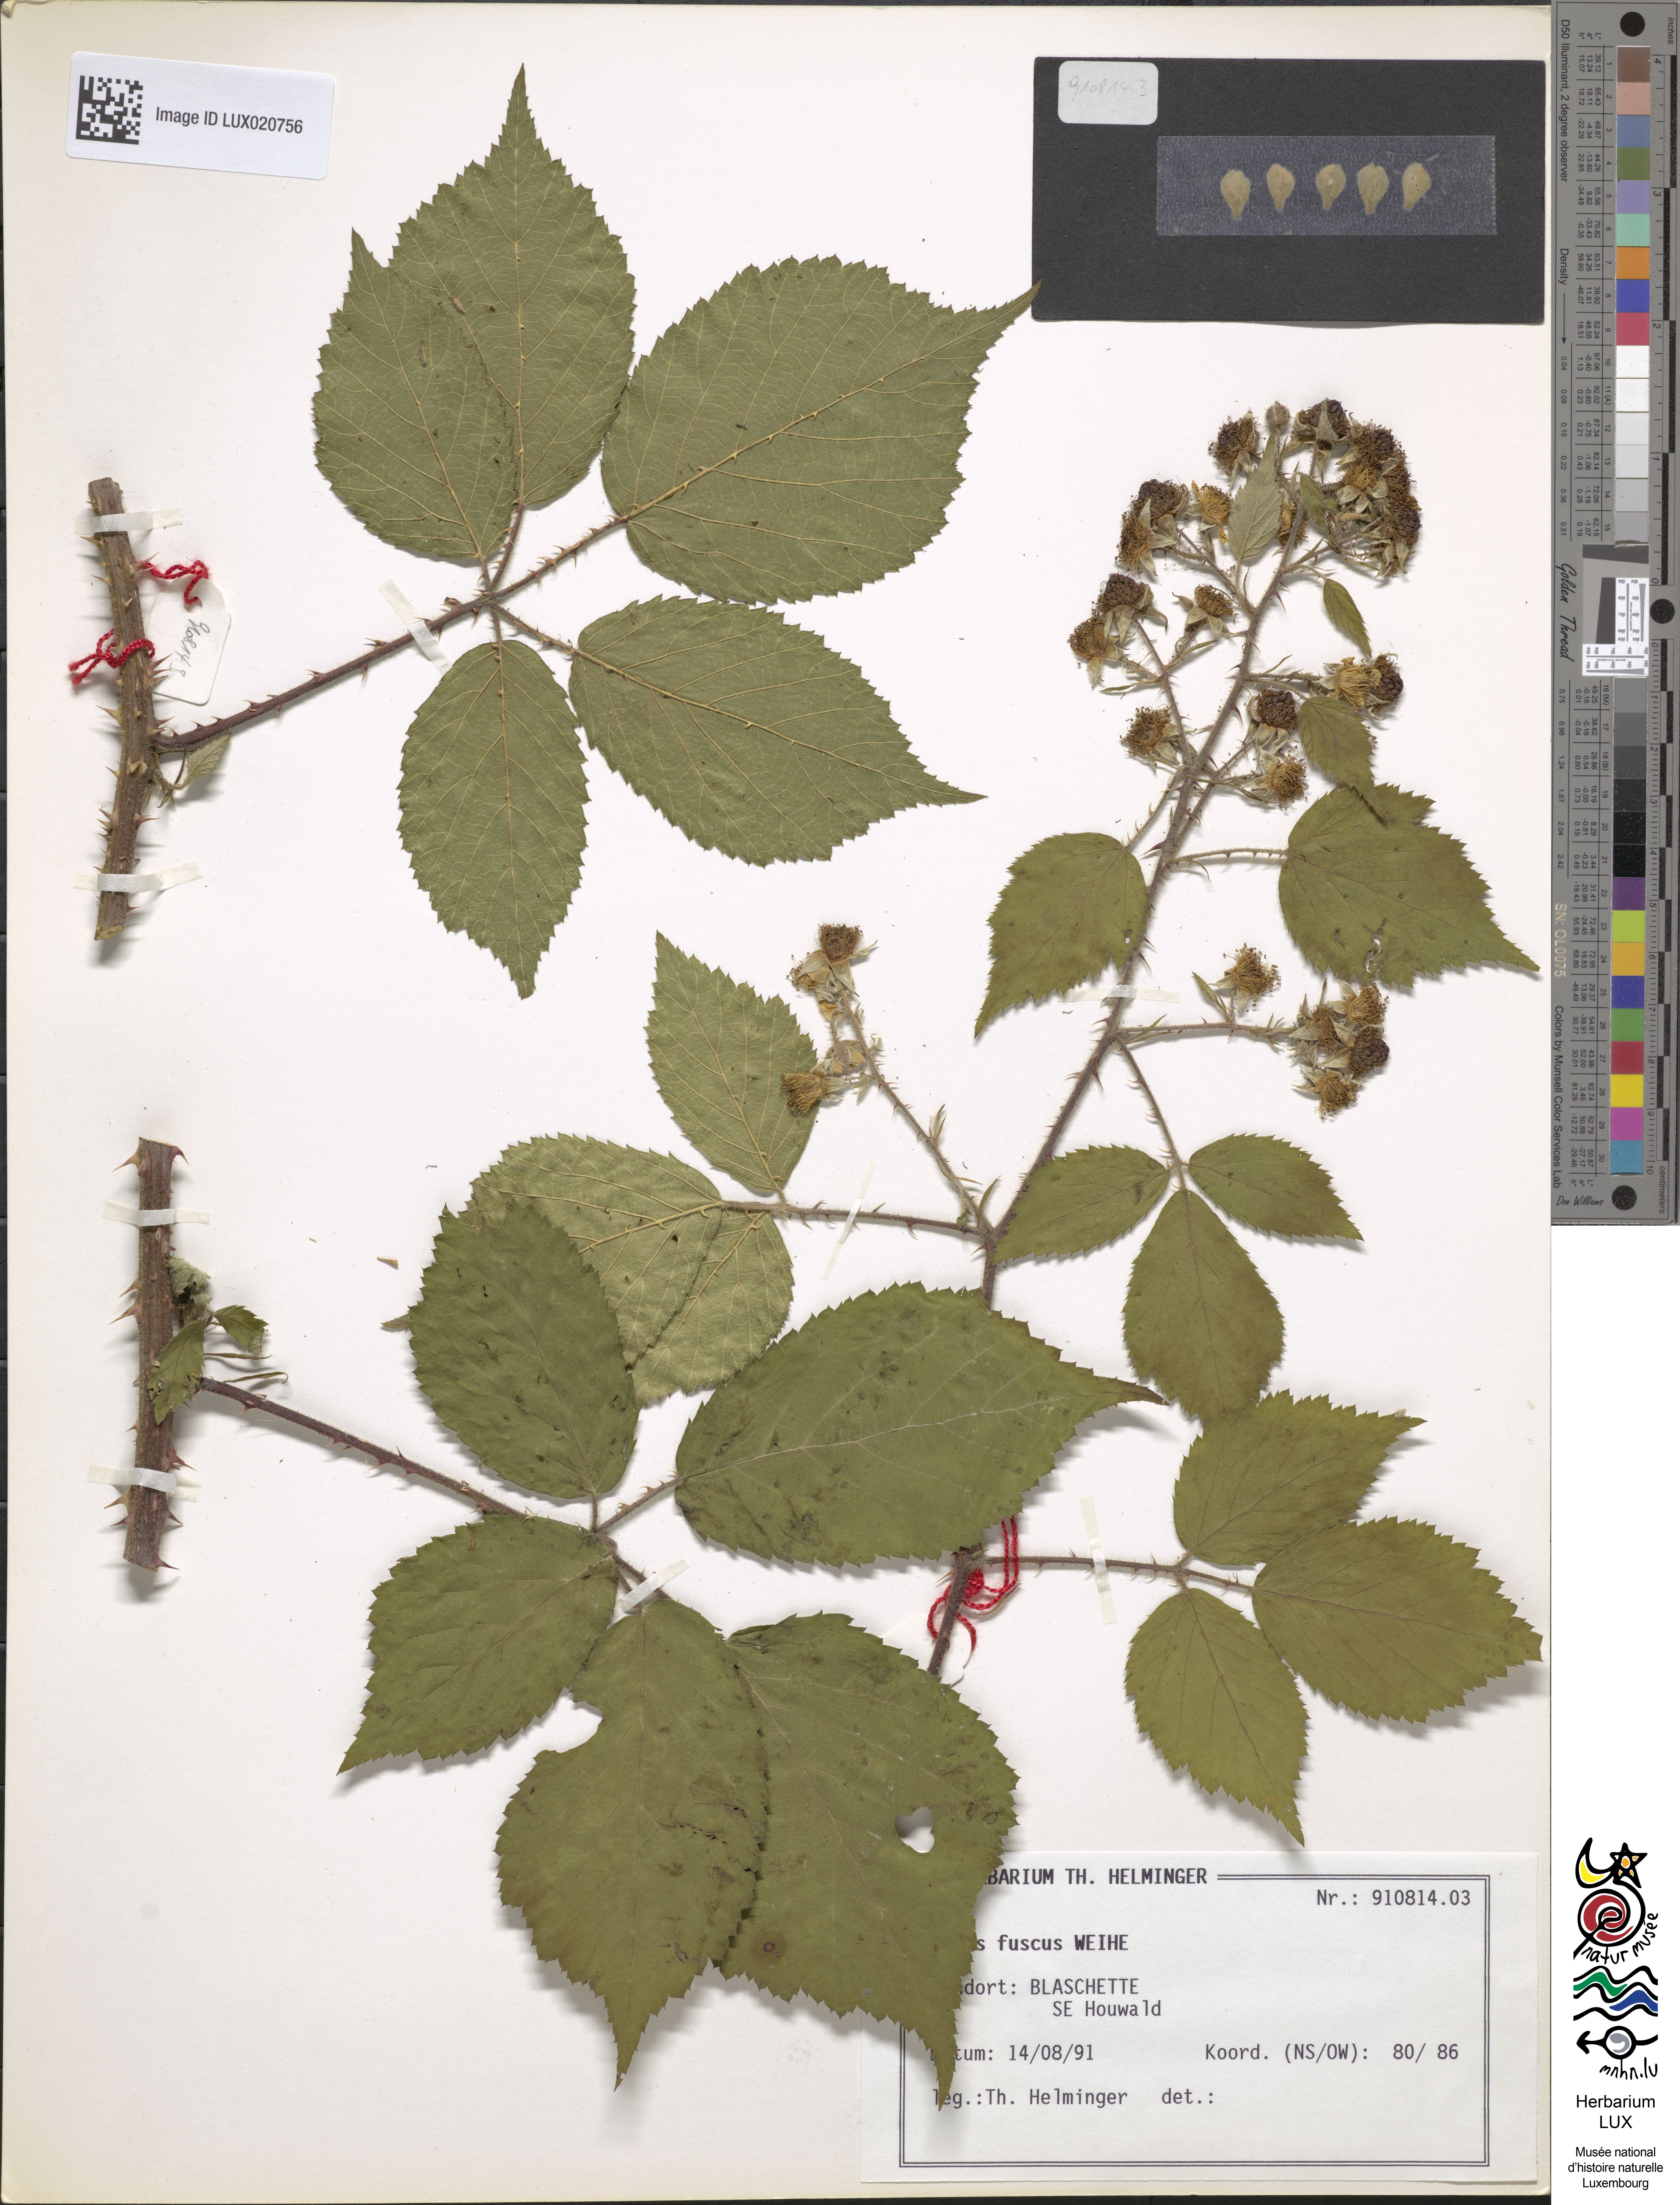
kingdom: Plantae
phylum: Tracheophyta
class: Magnoliopsida
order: Rosales
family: Rosaceae
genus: Rubus
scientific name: Rubus fuscus
